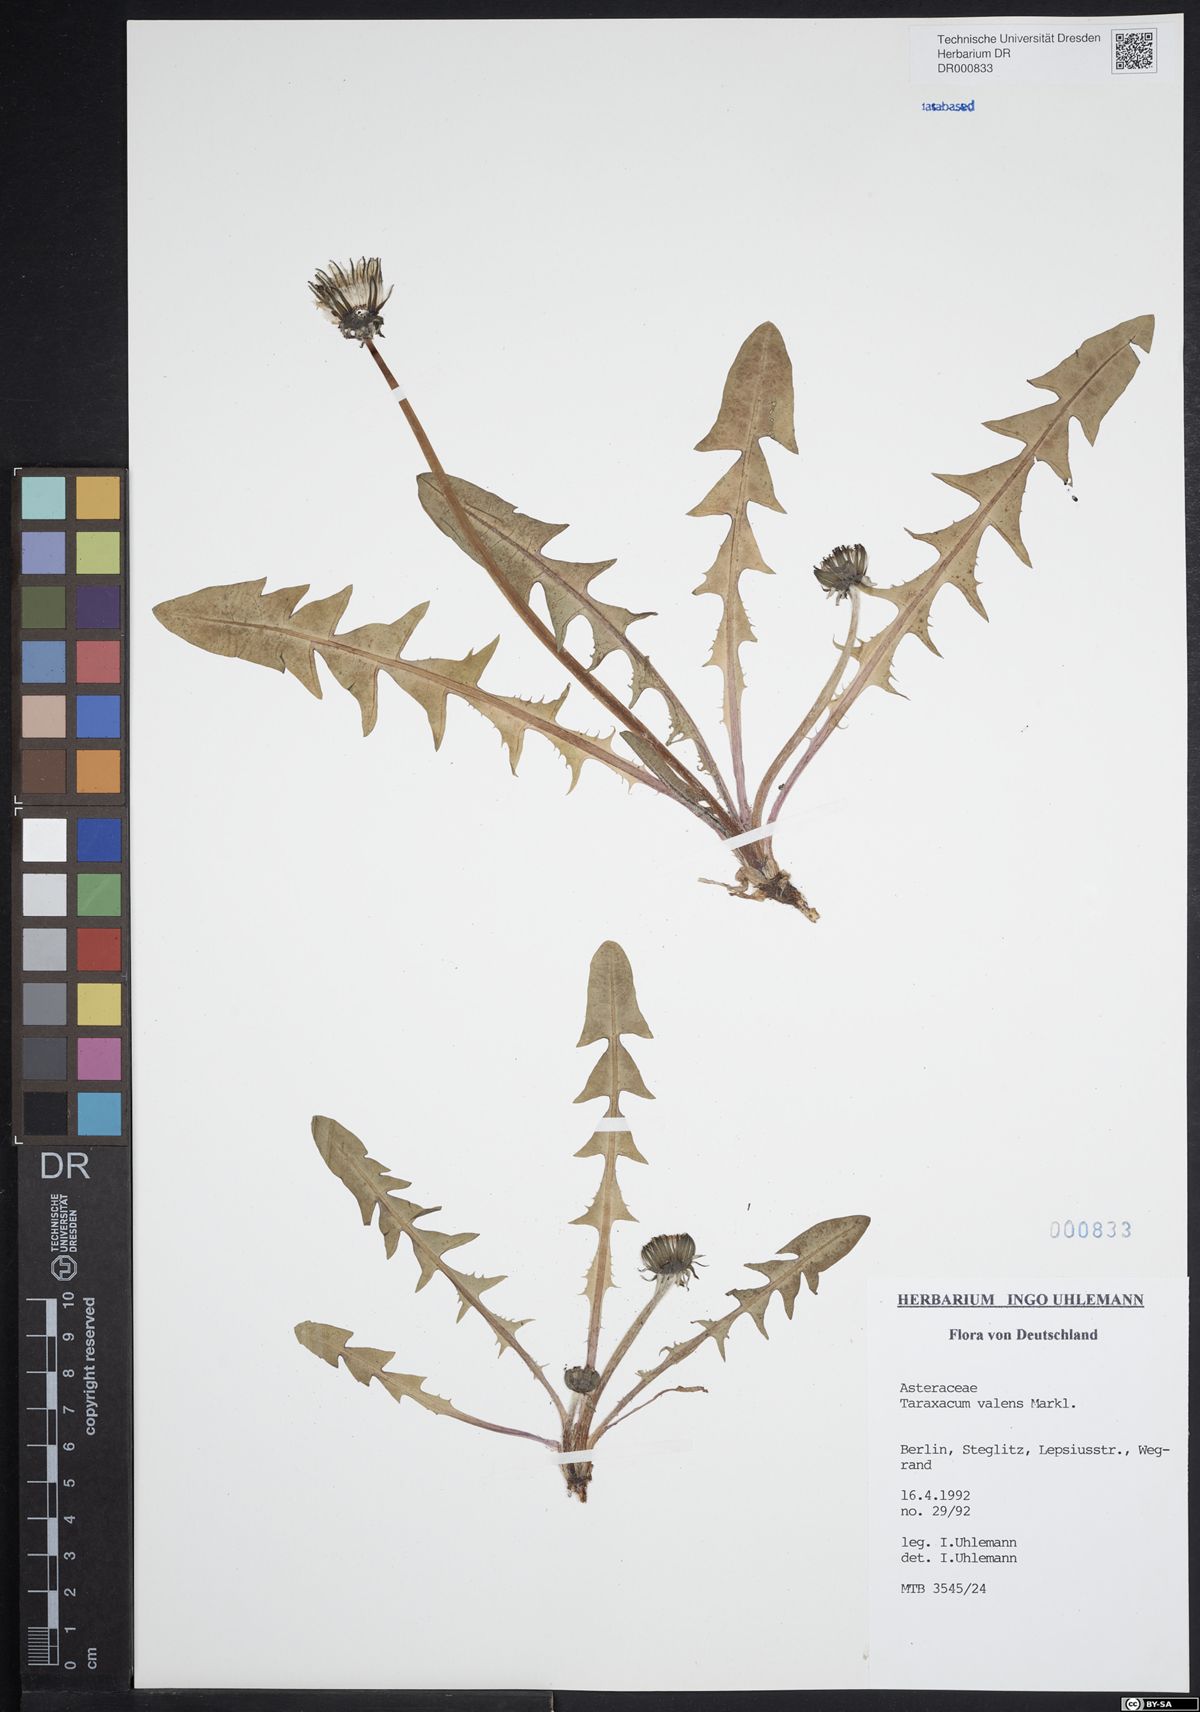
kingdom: Plantae
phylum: Tracheophyta
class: Magnoliopsida
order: Asterales
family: Asteraceae
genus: Taraxacum
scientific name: Taraxacum valens
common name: Reflexed-bracted dandelion
